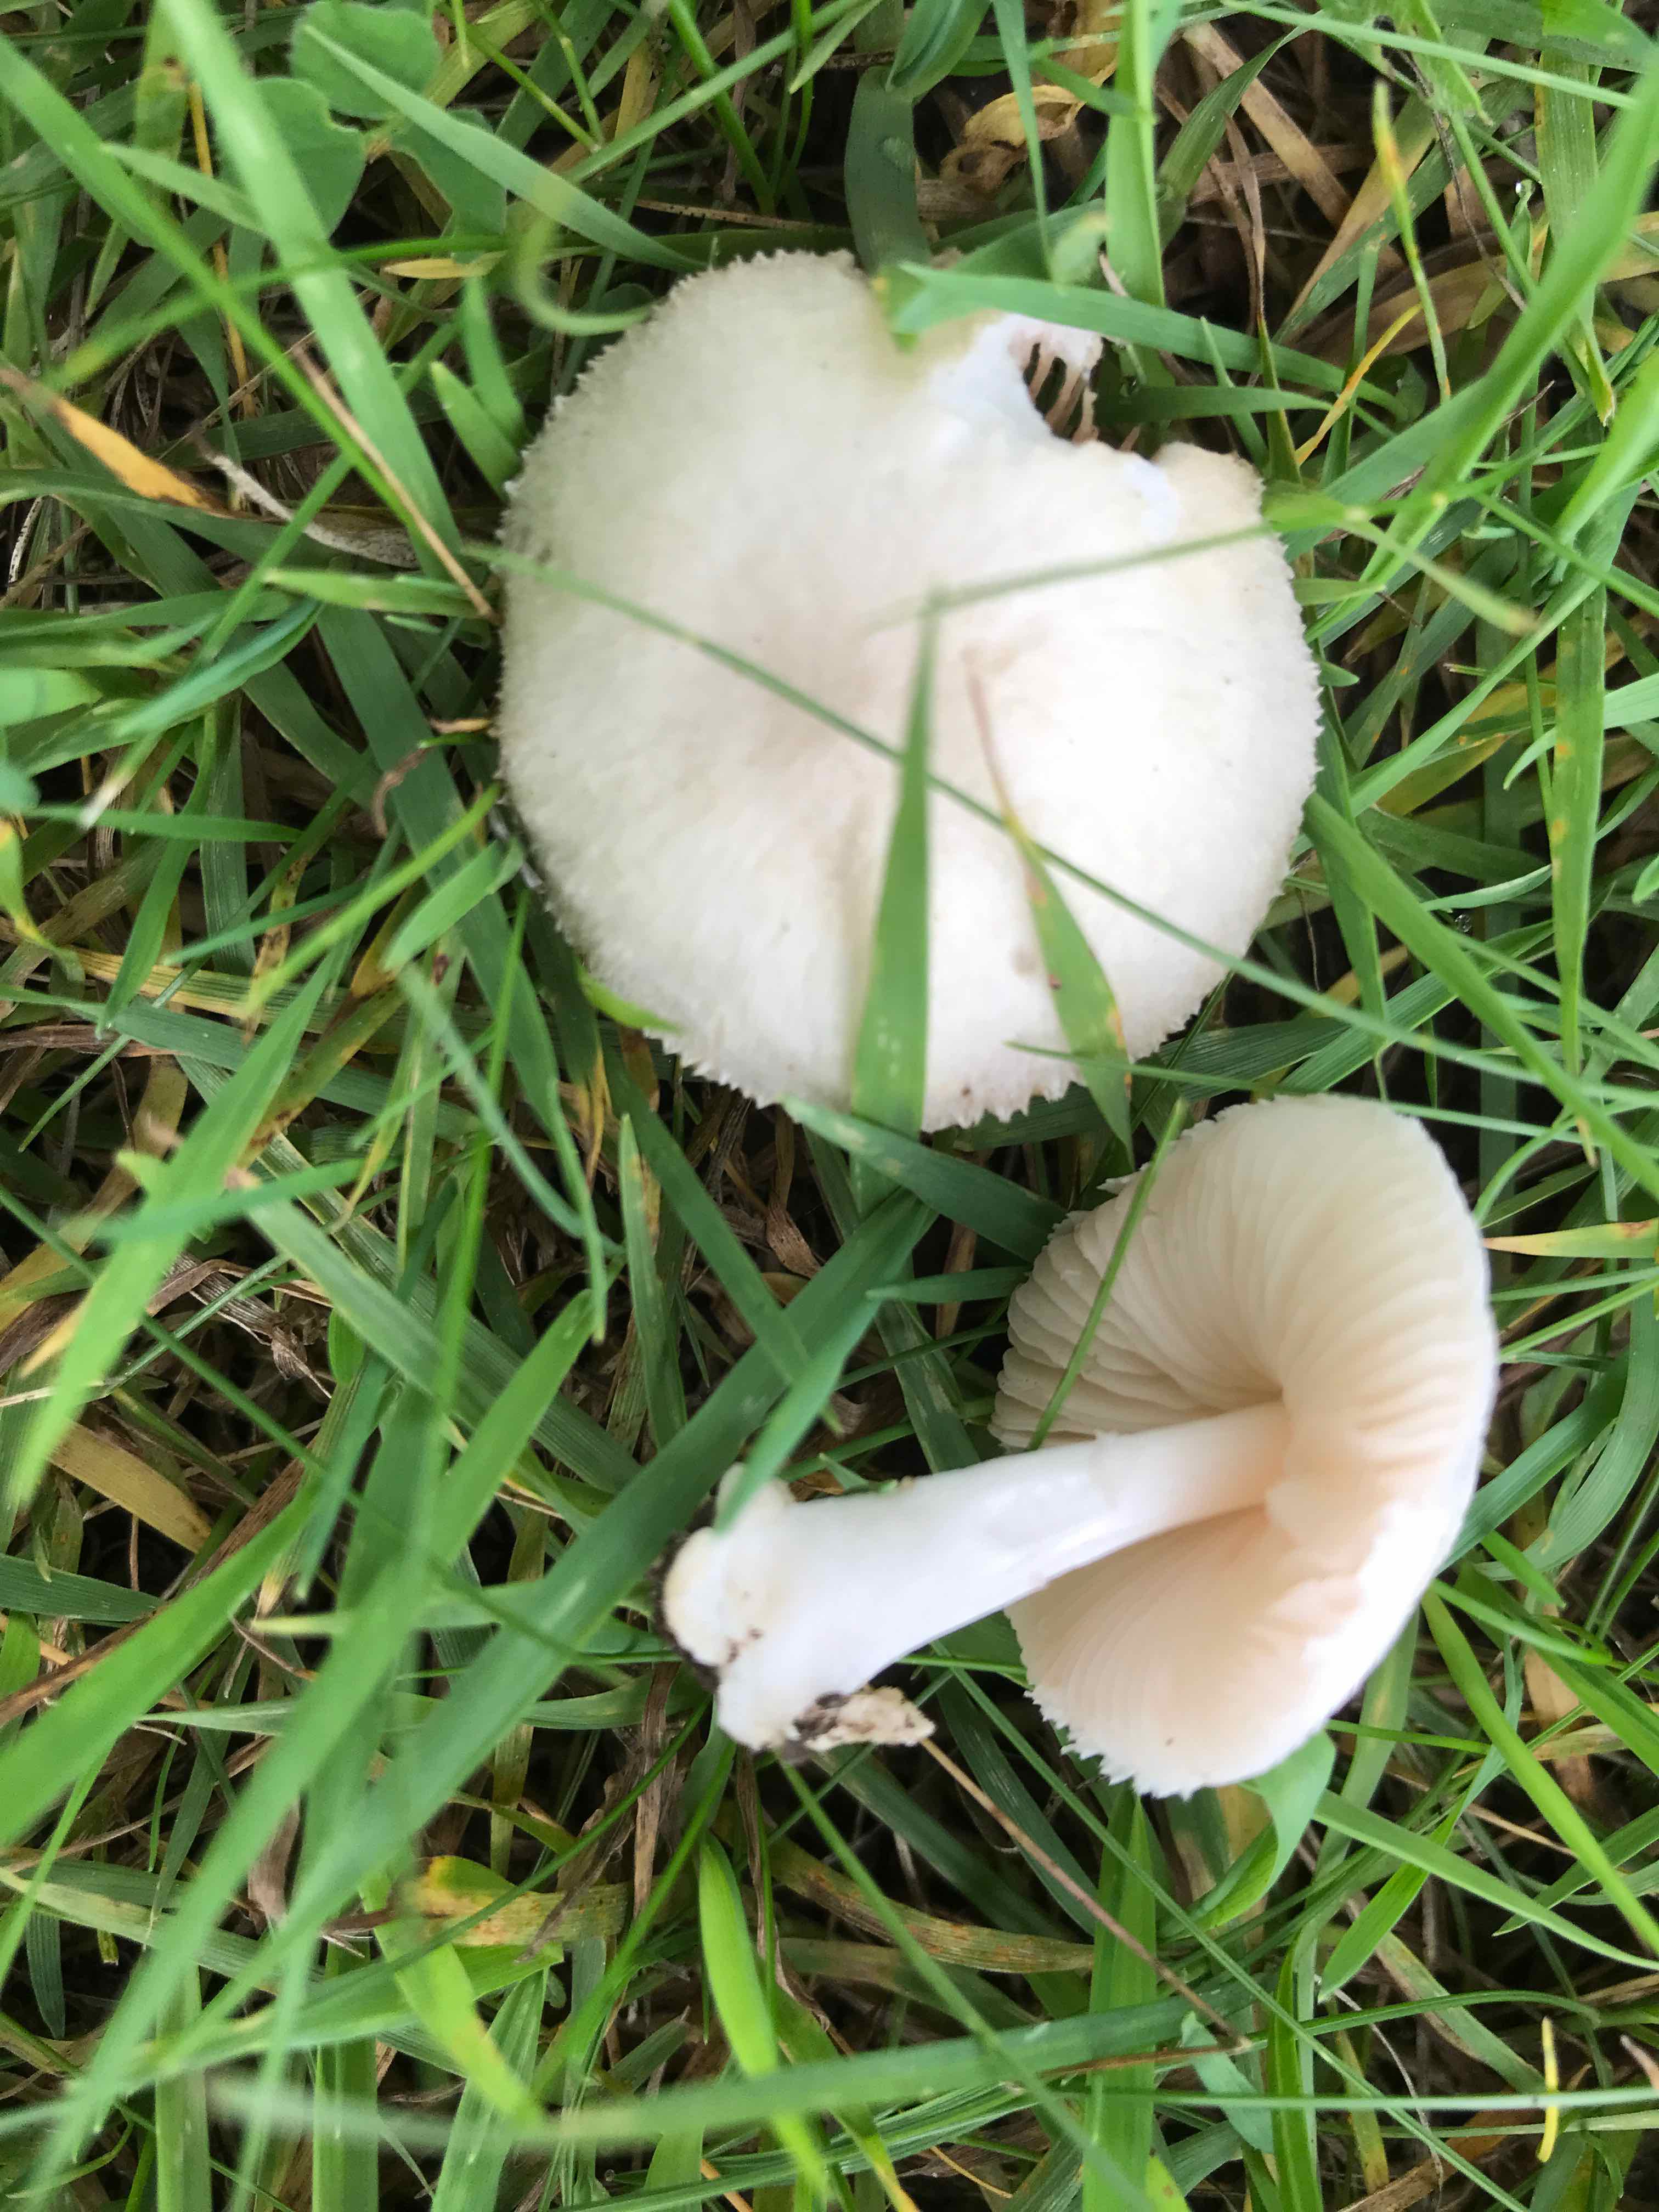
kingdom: Fungi
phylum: Basidiomycota
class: Agaricomycetes
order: Agaricales
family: Pluteaceae
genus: Volvariella
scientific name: Volvariella
